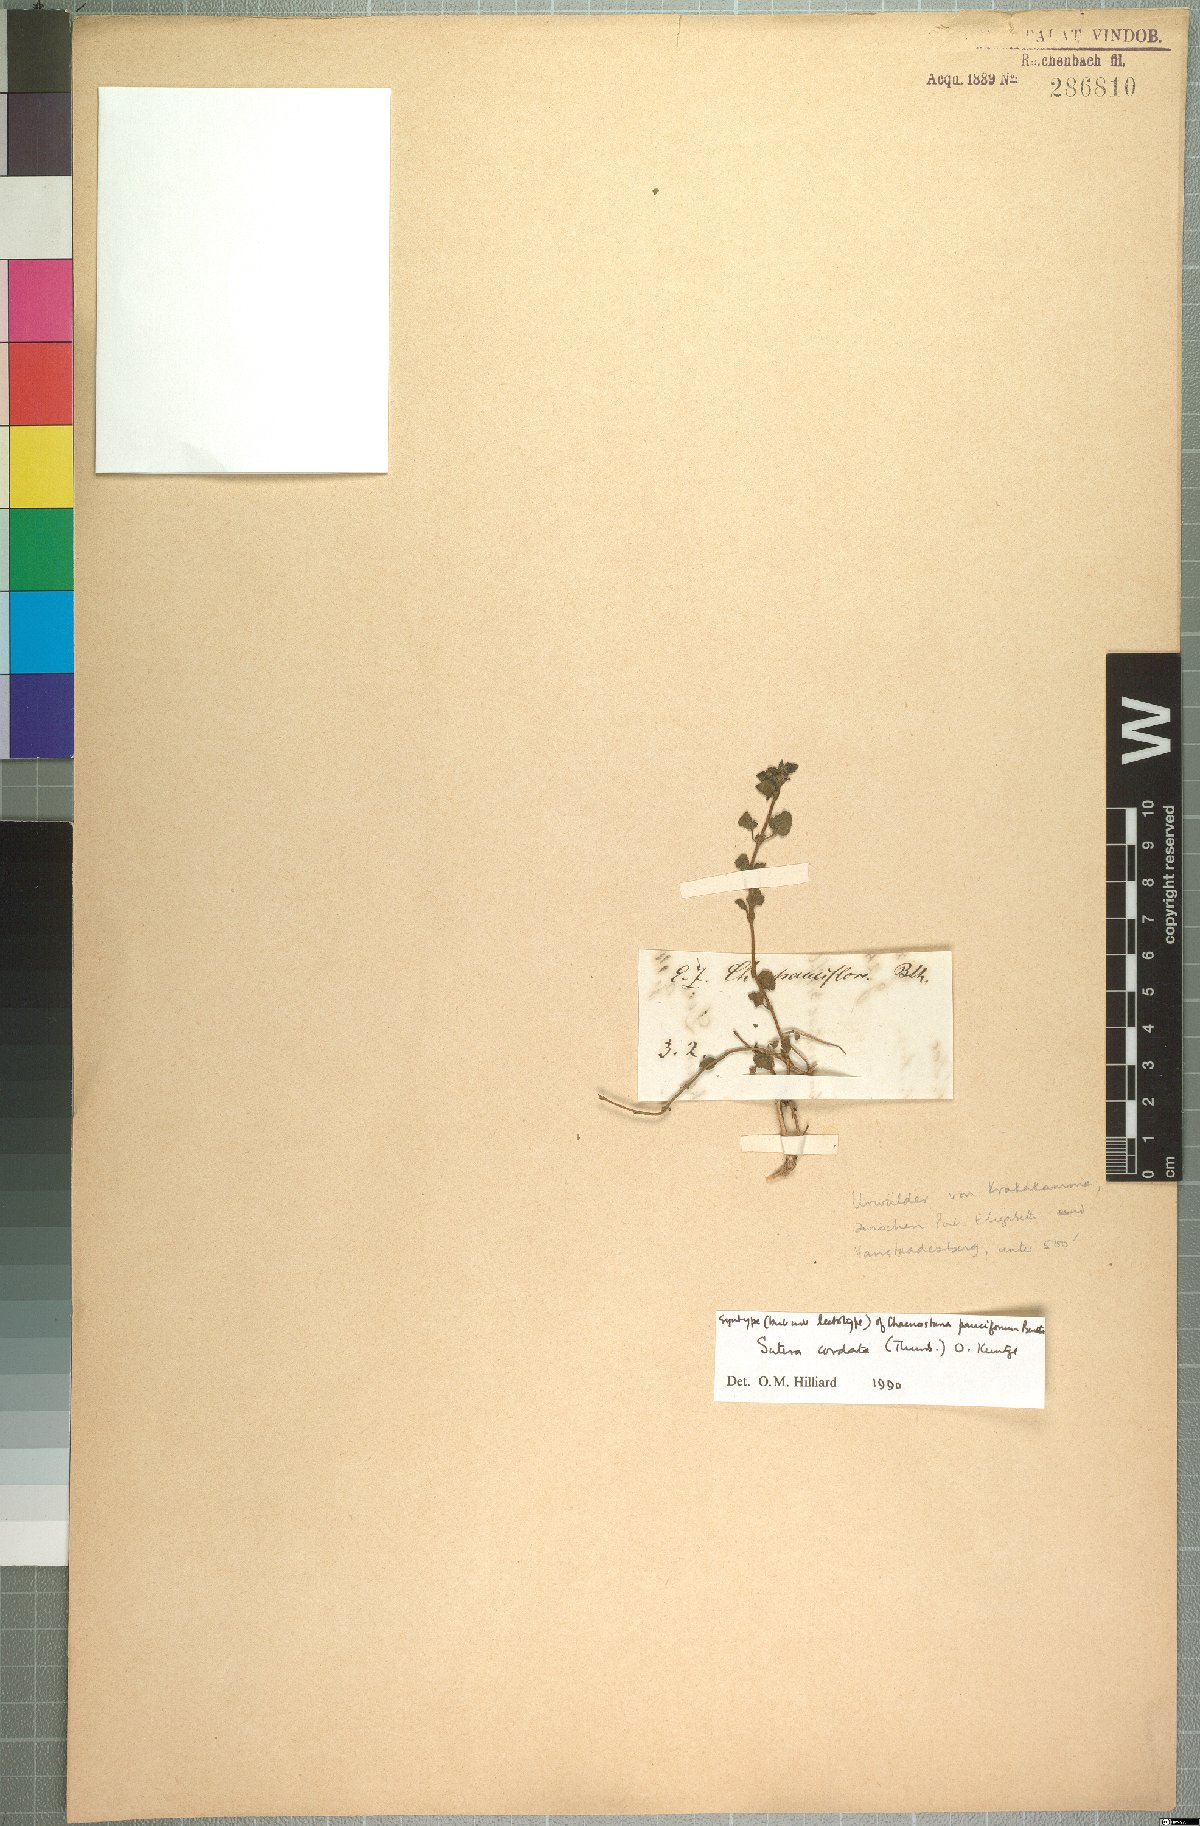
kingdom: Plantae
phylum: Tracheophyta
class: Magnoliopsida
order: Lamiales
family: Scrophulariaceae
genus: Chaenostoma
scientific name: Chaenostoma cordatum
